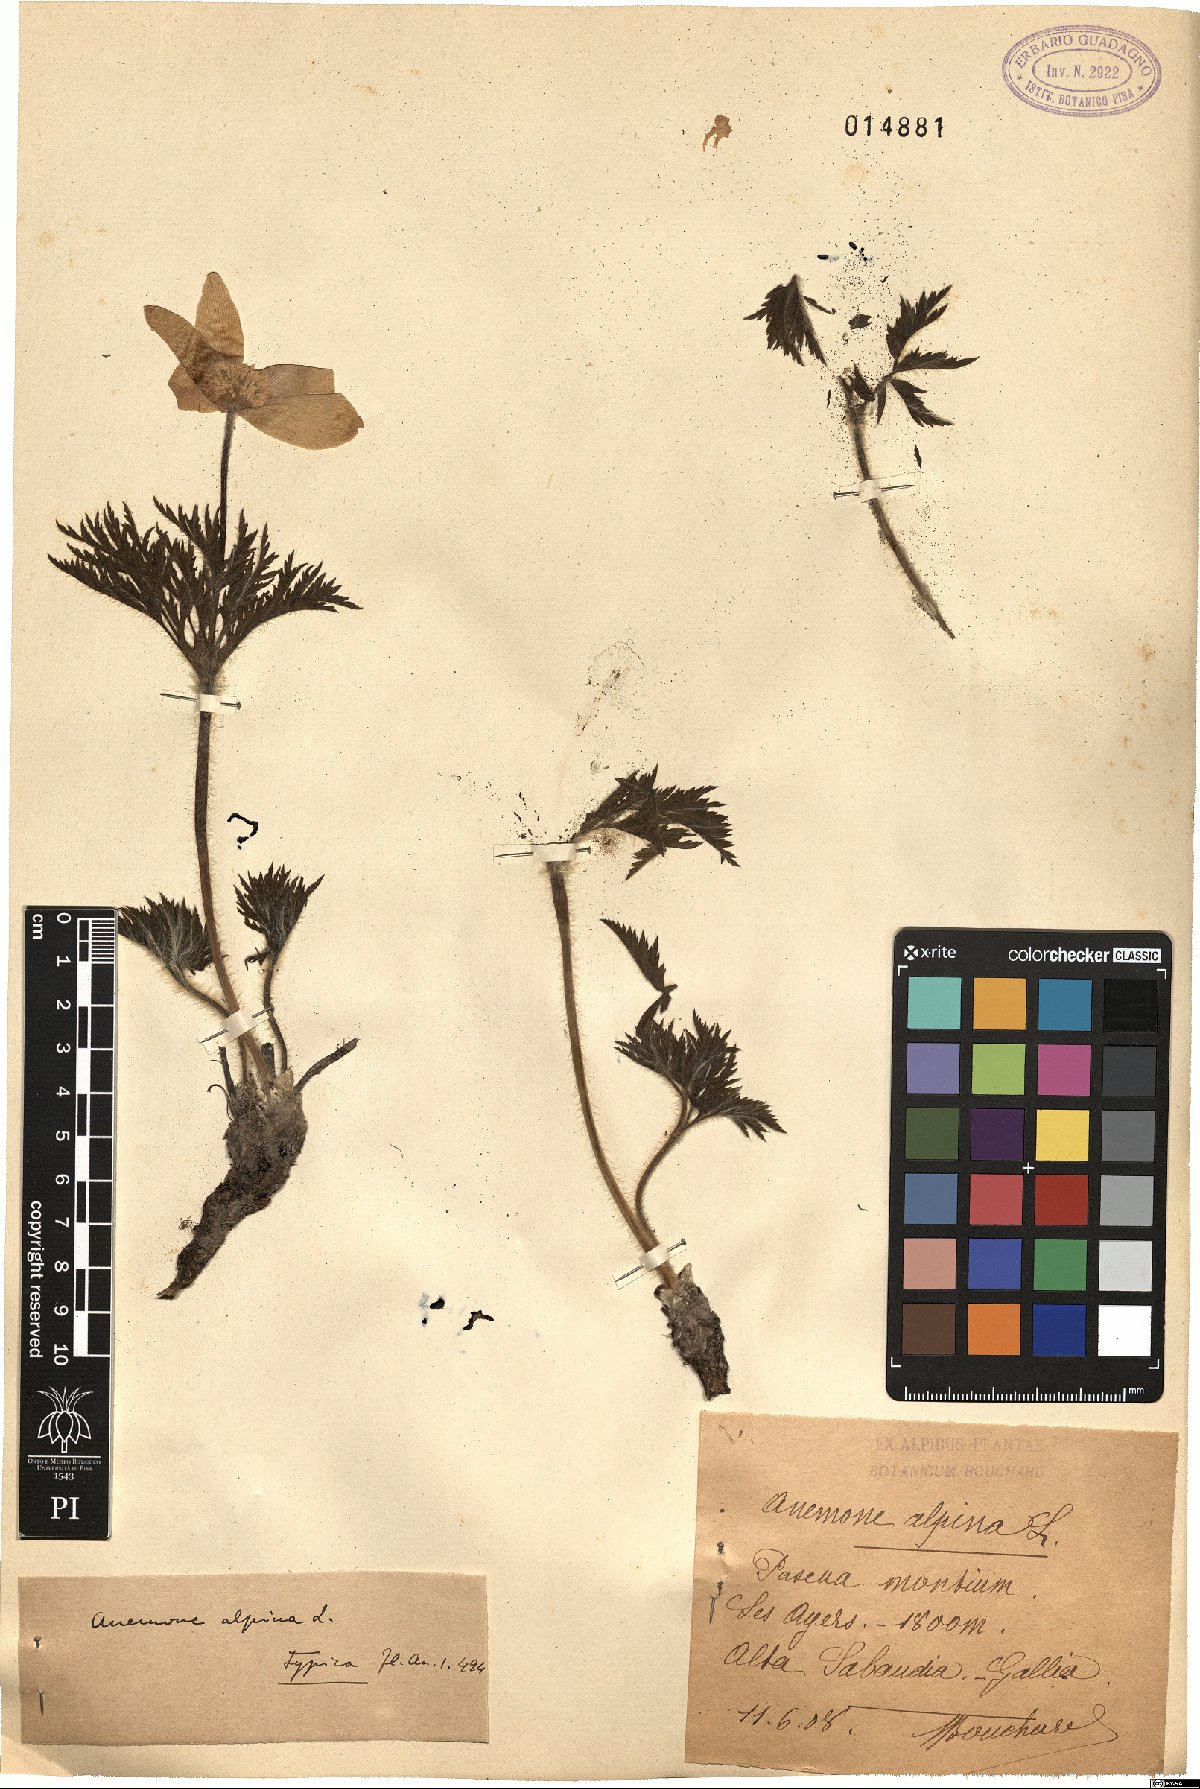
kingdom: Plantae
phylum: Tracheophyta
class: Magnoliopsida
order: Ranunculales
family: Ranunculaceae
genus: Pulsatilla
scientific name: Pulsatilla alpina
